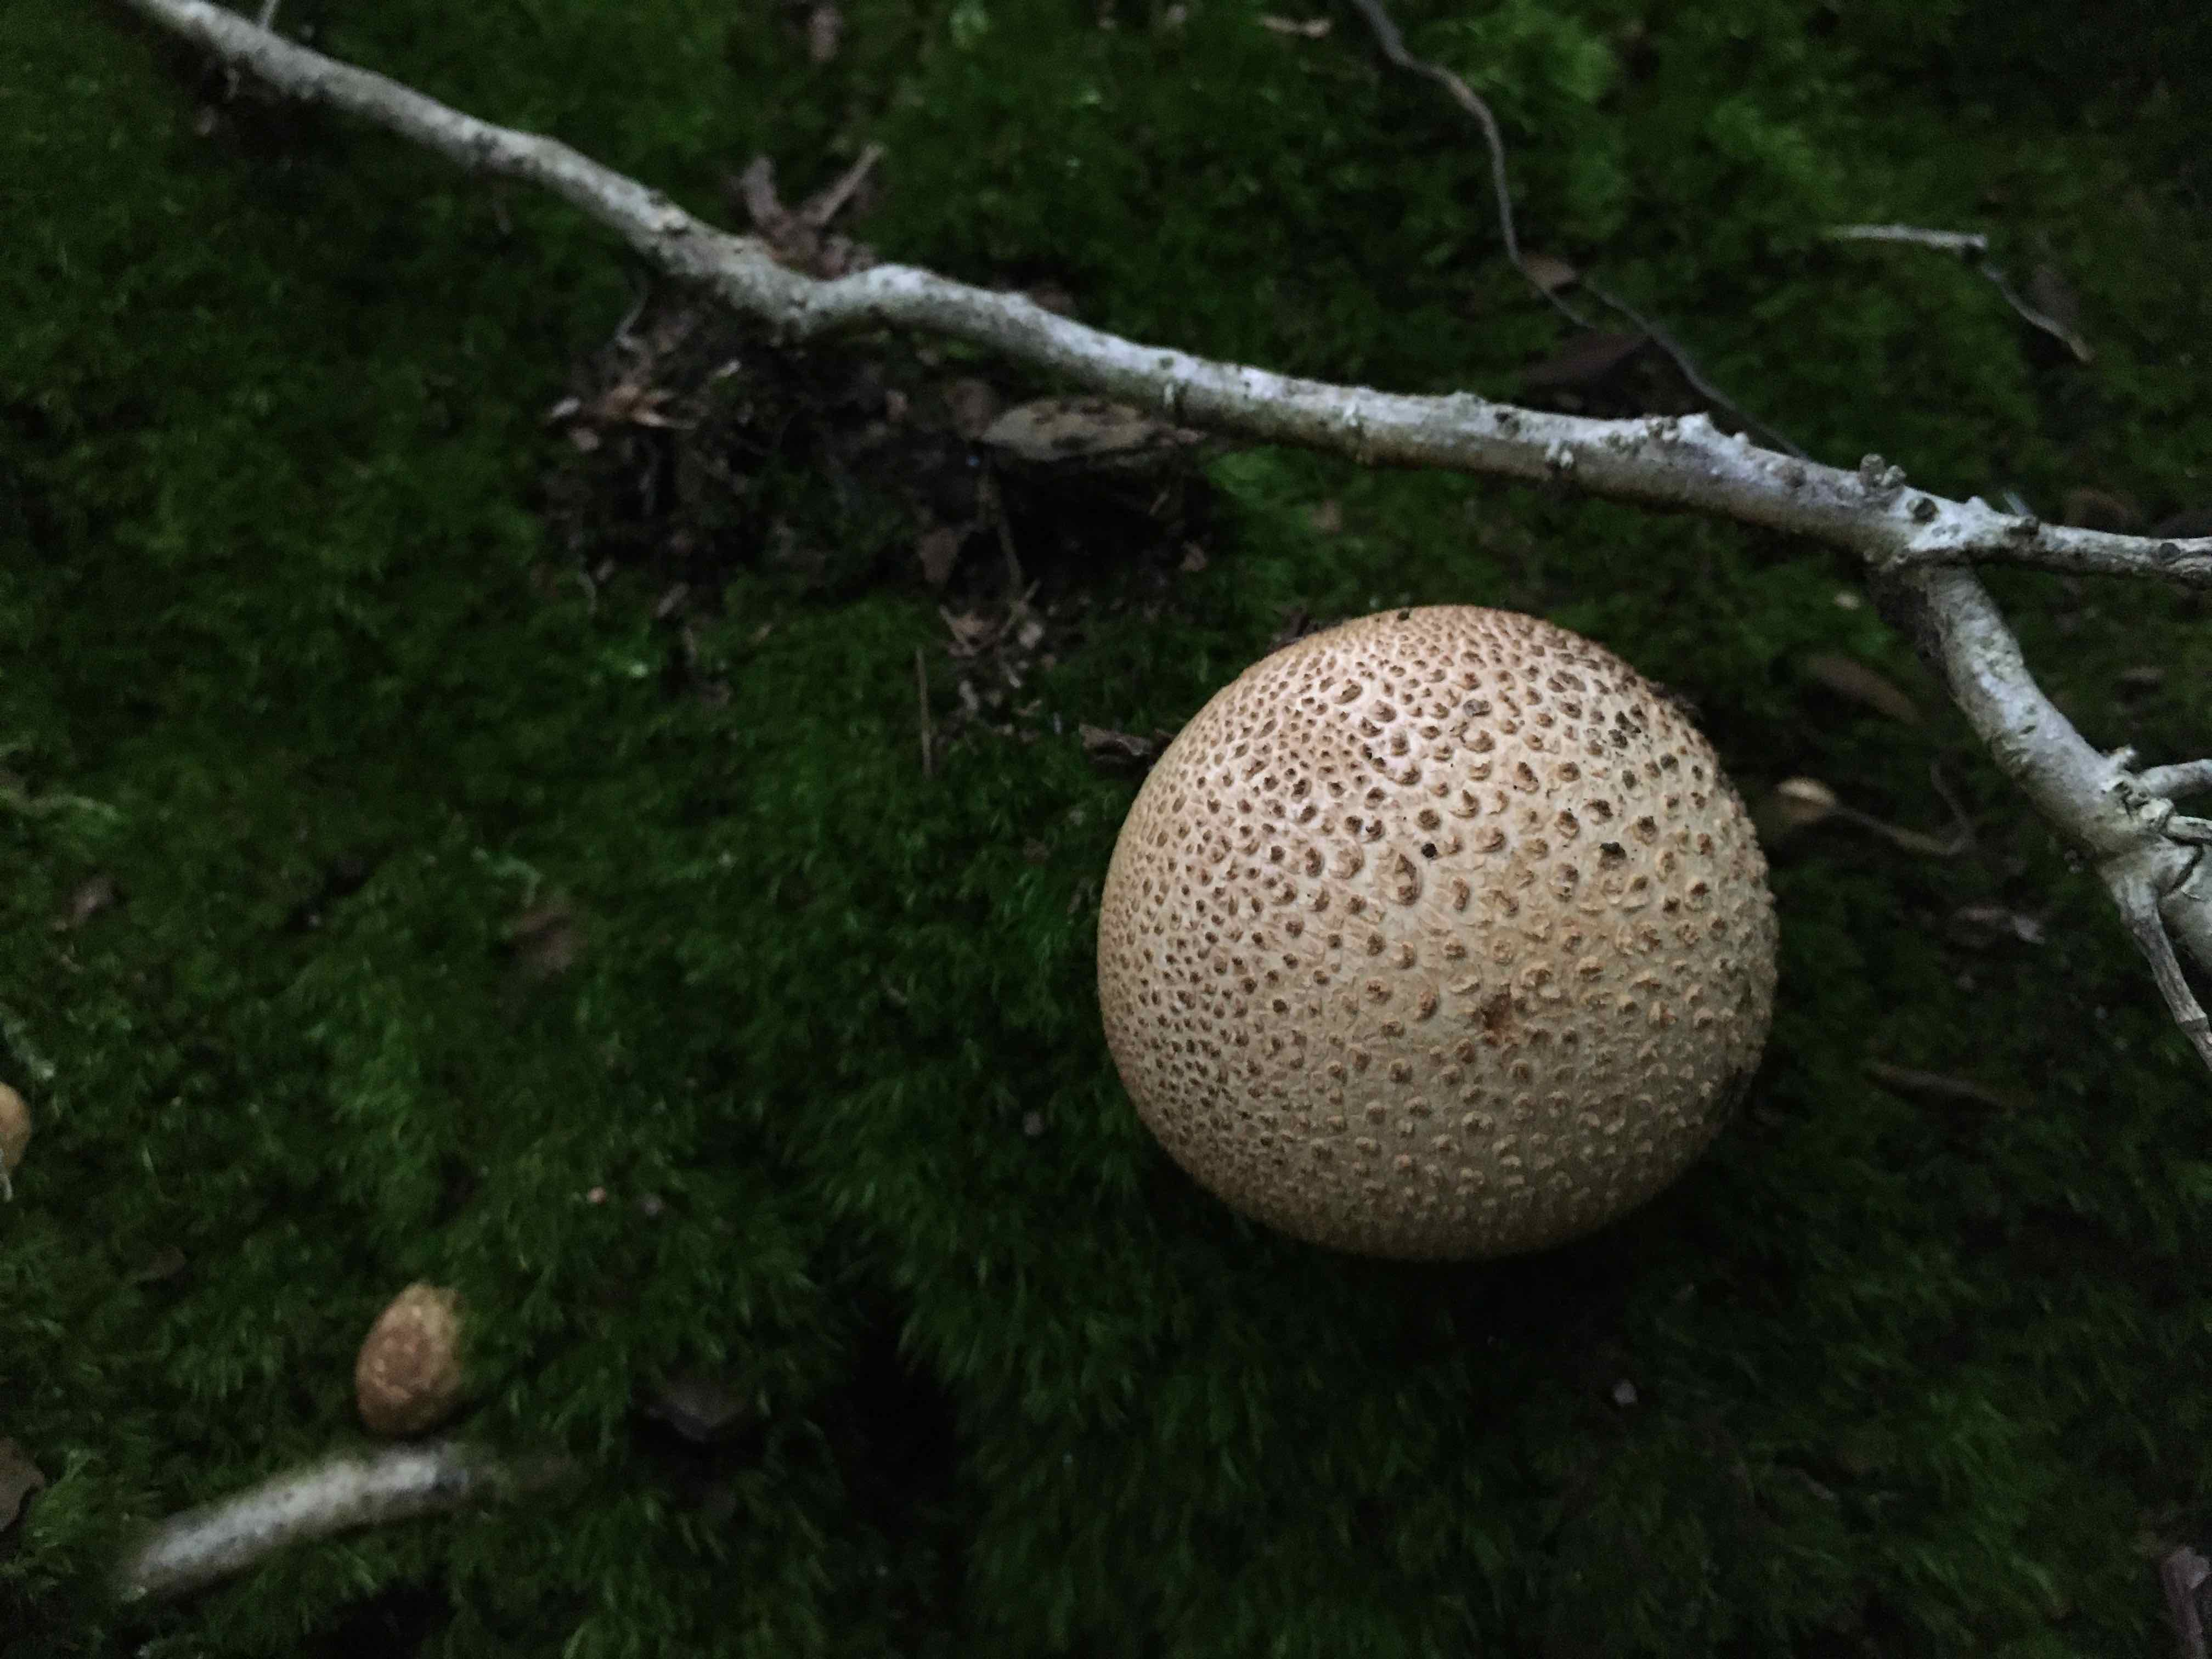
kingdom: Fungi
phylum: Basidiomycota
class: Agaricomycetes
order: Boletales
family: Sclerodermataceae
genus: Scleroderma
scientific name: Scleroderma citrinum
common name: almindelig bruskbold
